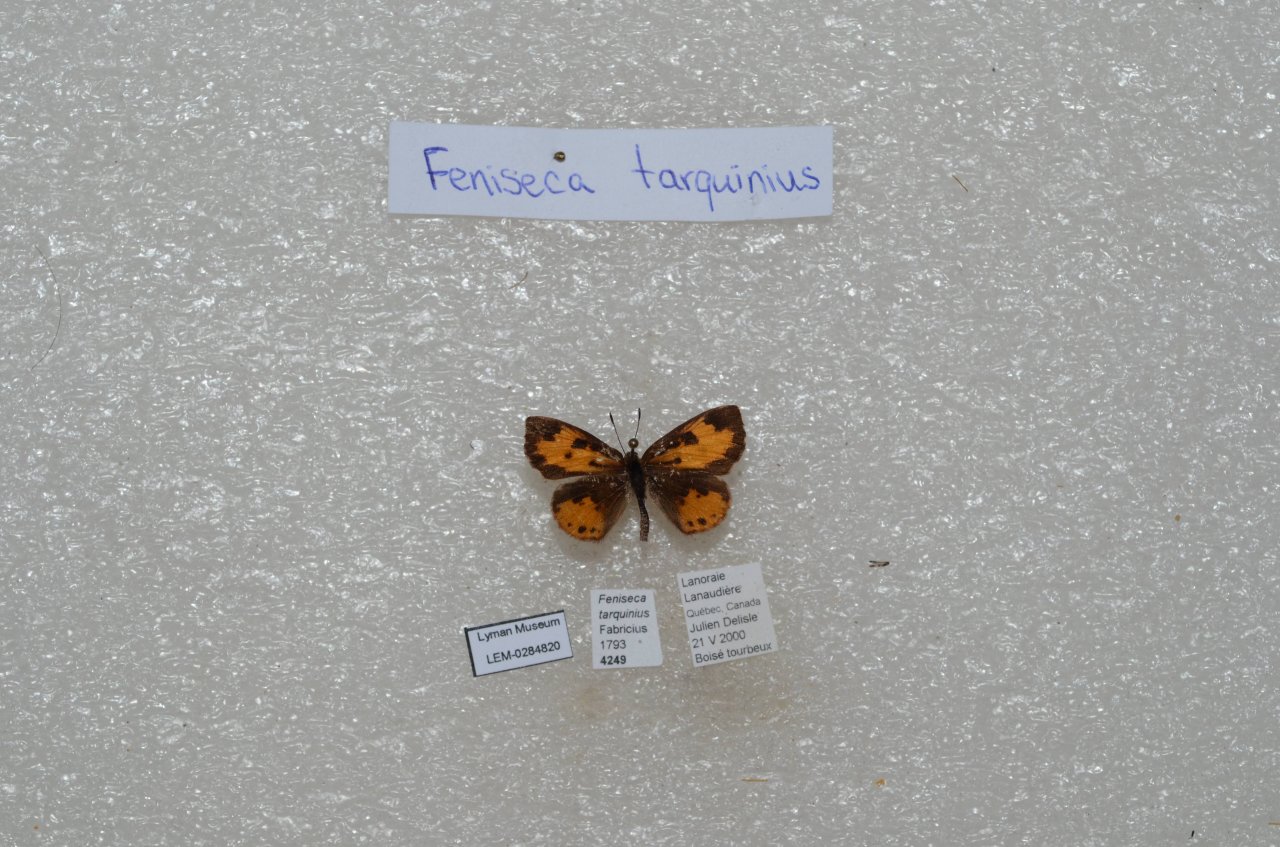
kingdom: Animalia
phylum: Arthropoda
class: Insecta
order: Lepidoptera
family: Lycaenidae
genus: Feniseca
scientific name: Feniseca tarquinius
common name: Harvester
